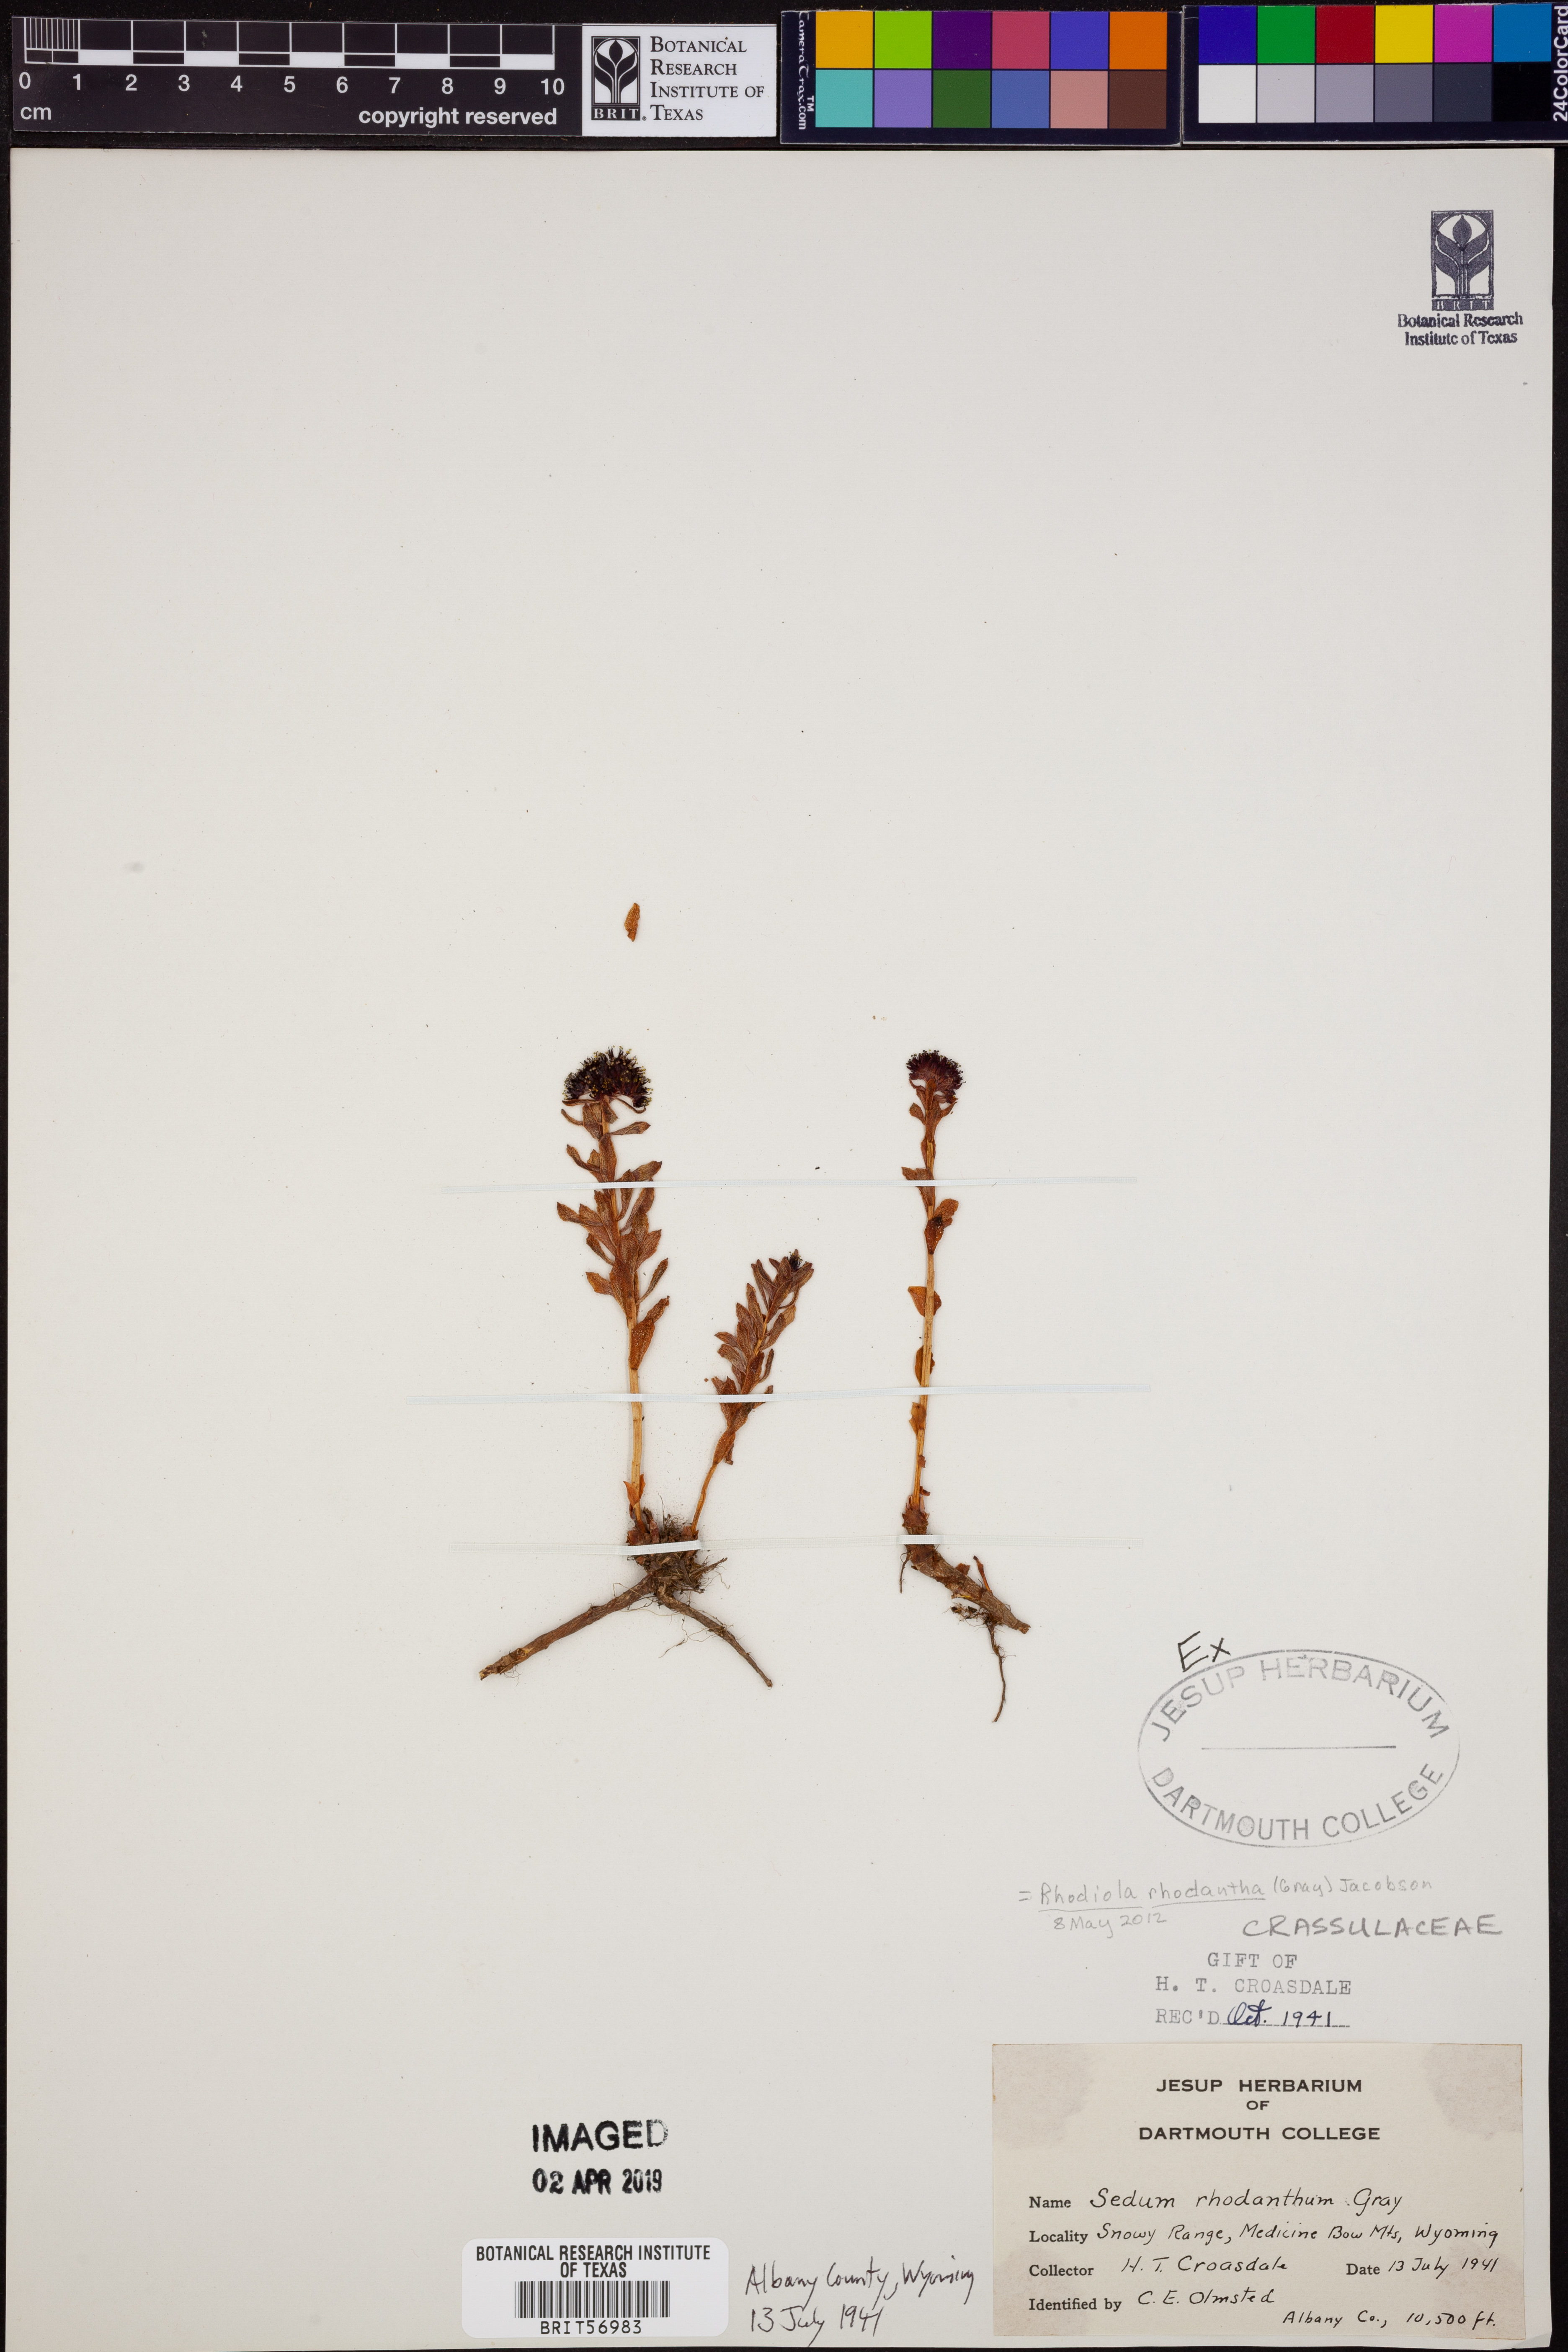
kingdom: Plantae
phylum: Tracheophyta
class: Magnoliopsida
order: Saxifragales
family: Crassulaceae
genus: Rhodiola
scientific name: Rhodiola rhodantha
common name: Red orpine
